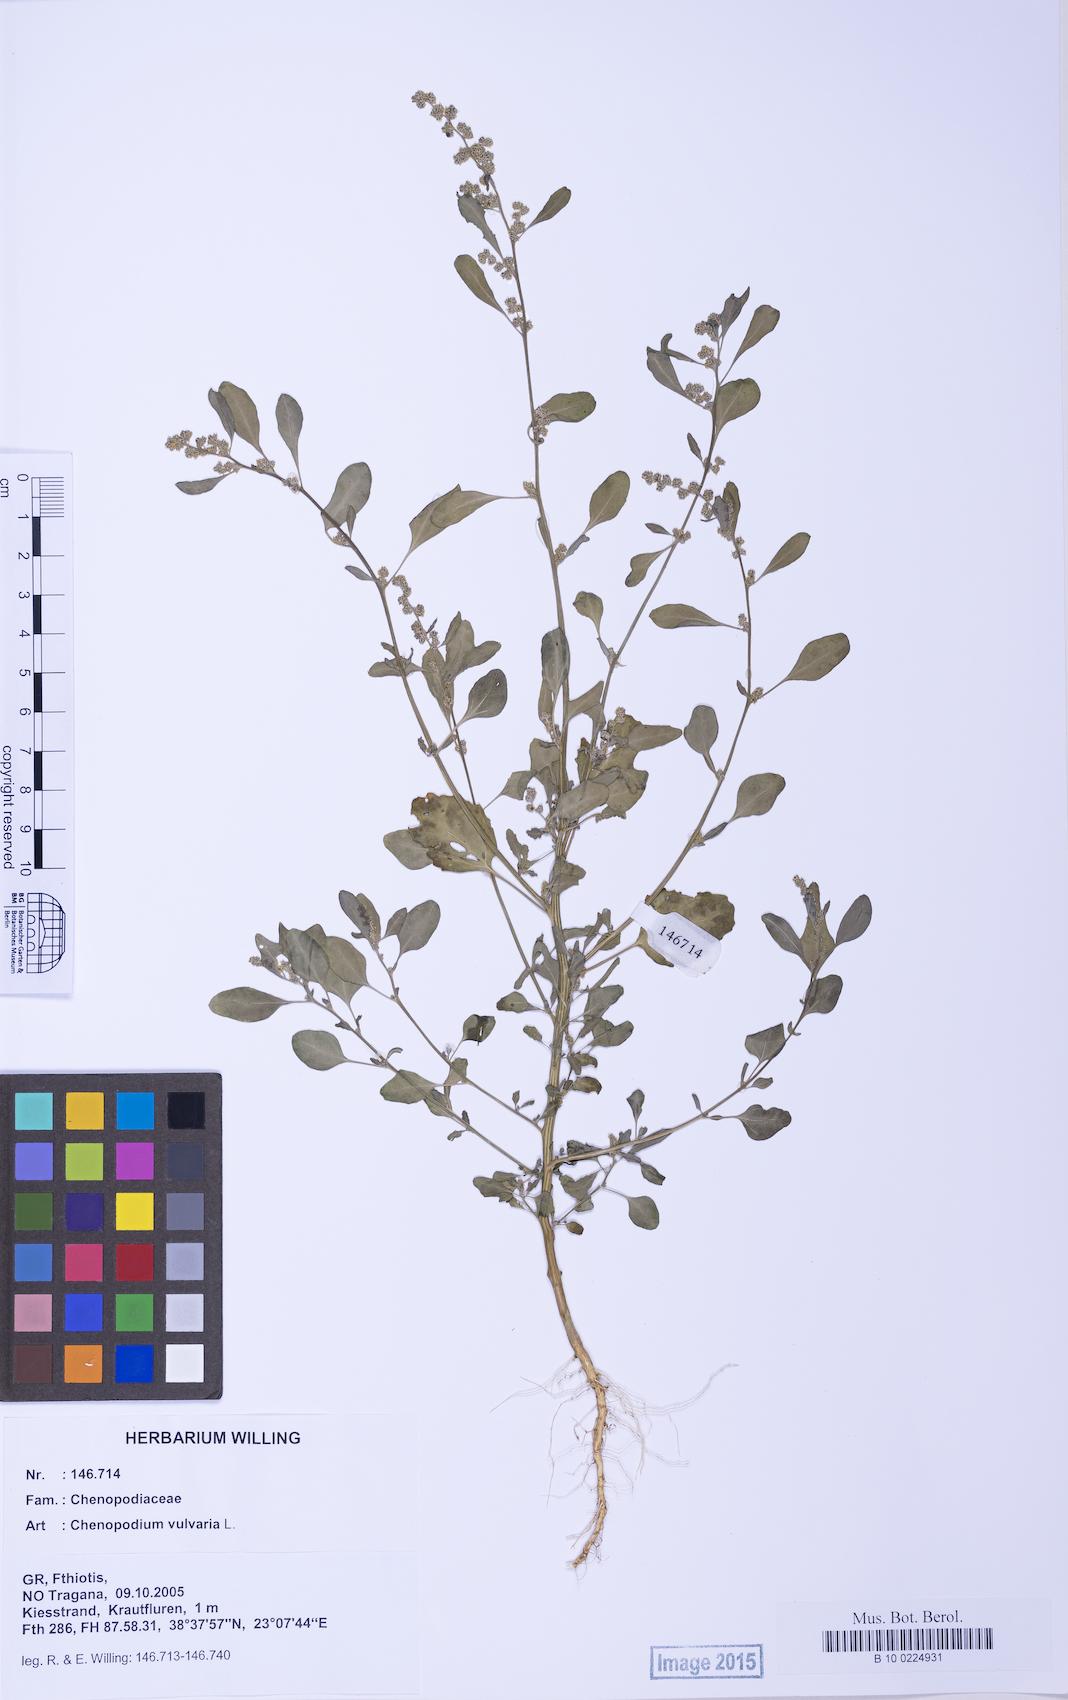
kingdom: Plantae
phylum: Tracheophyta
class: Magnoliopsida
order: Caryophyllales
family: Amaranthaceae
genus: Chenopodium
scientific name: Chenopodium vulvaria
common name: Stinking goosefoot
